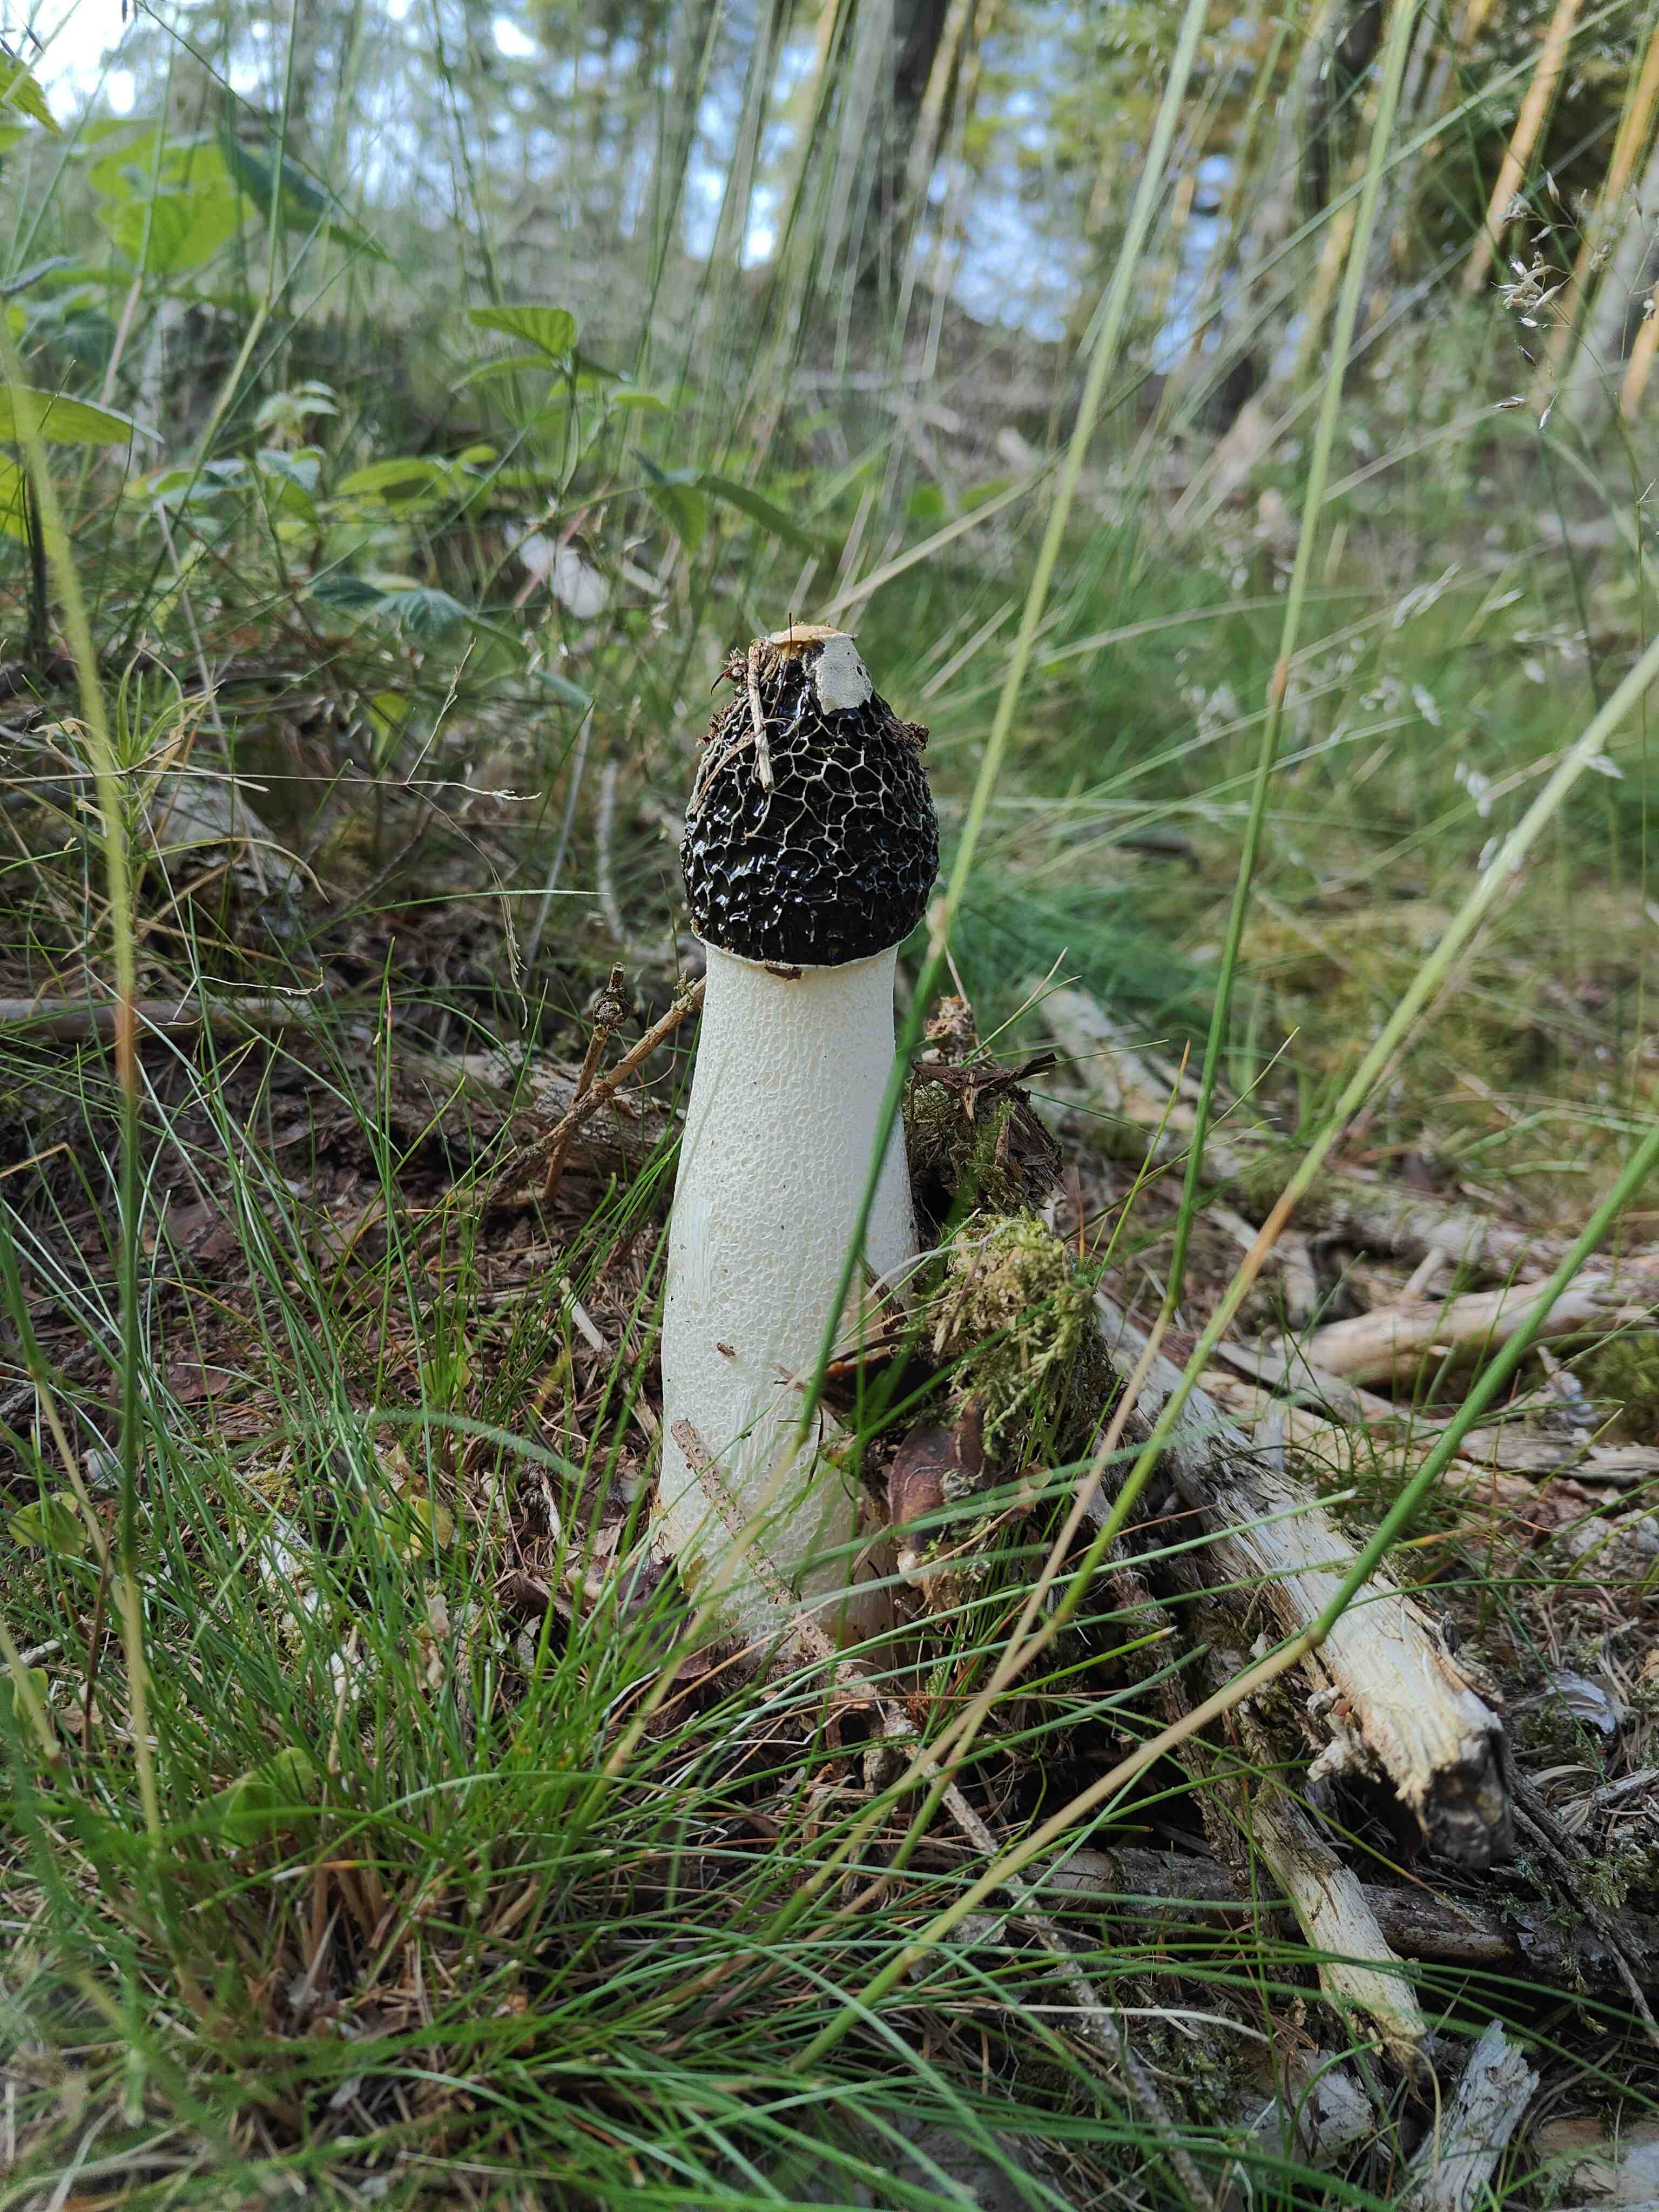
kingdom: Fungi
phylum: Basidiomycota
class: Agaricomycetes
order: Phallales
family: Phallaceae
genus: Phallus
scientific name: Phallus impudicus
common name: almindelig stinksvamp
